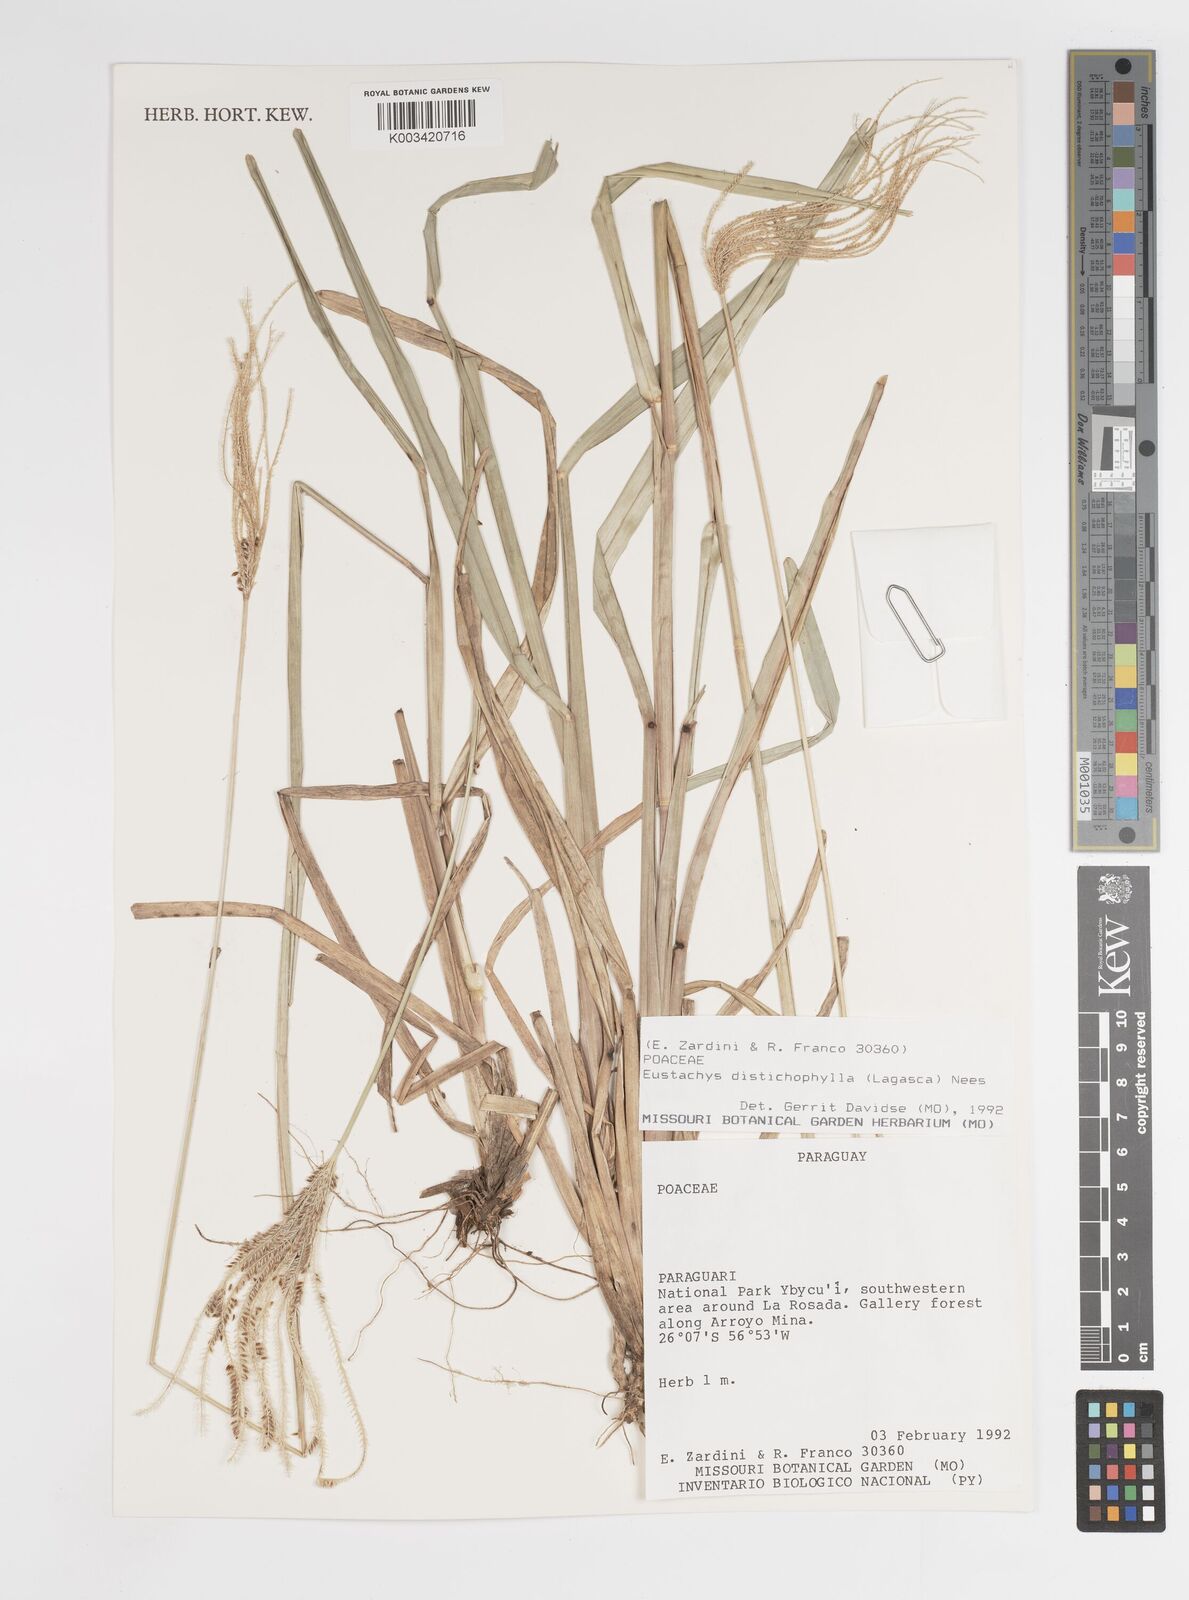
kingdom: Plantae
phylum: Tracheophyta
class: Liliopsida
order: Poales
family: Poaceae
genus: Eustachys
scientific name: Eustachys distichophylla
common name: Weeping fingergrass
